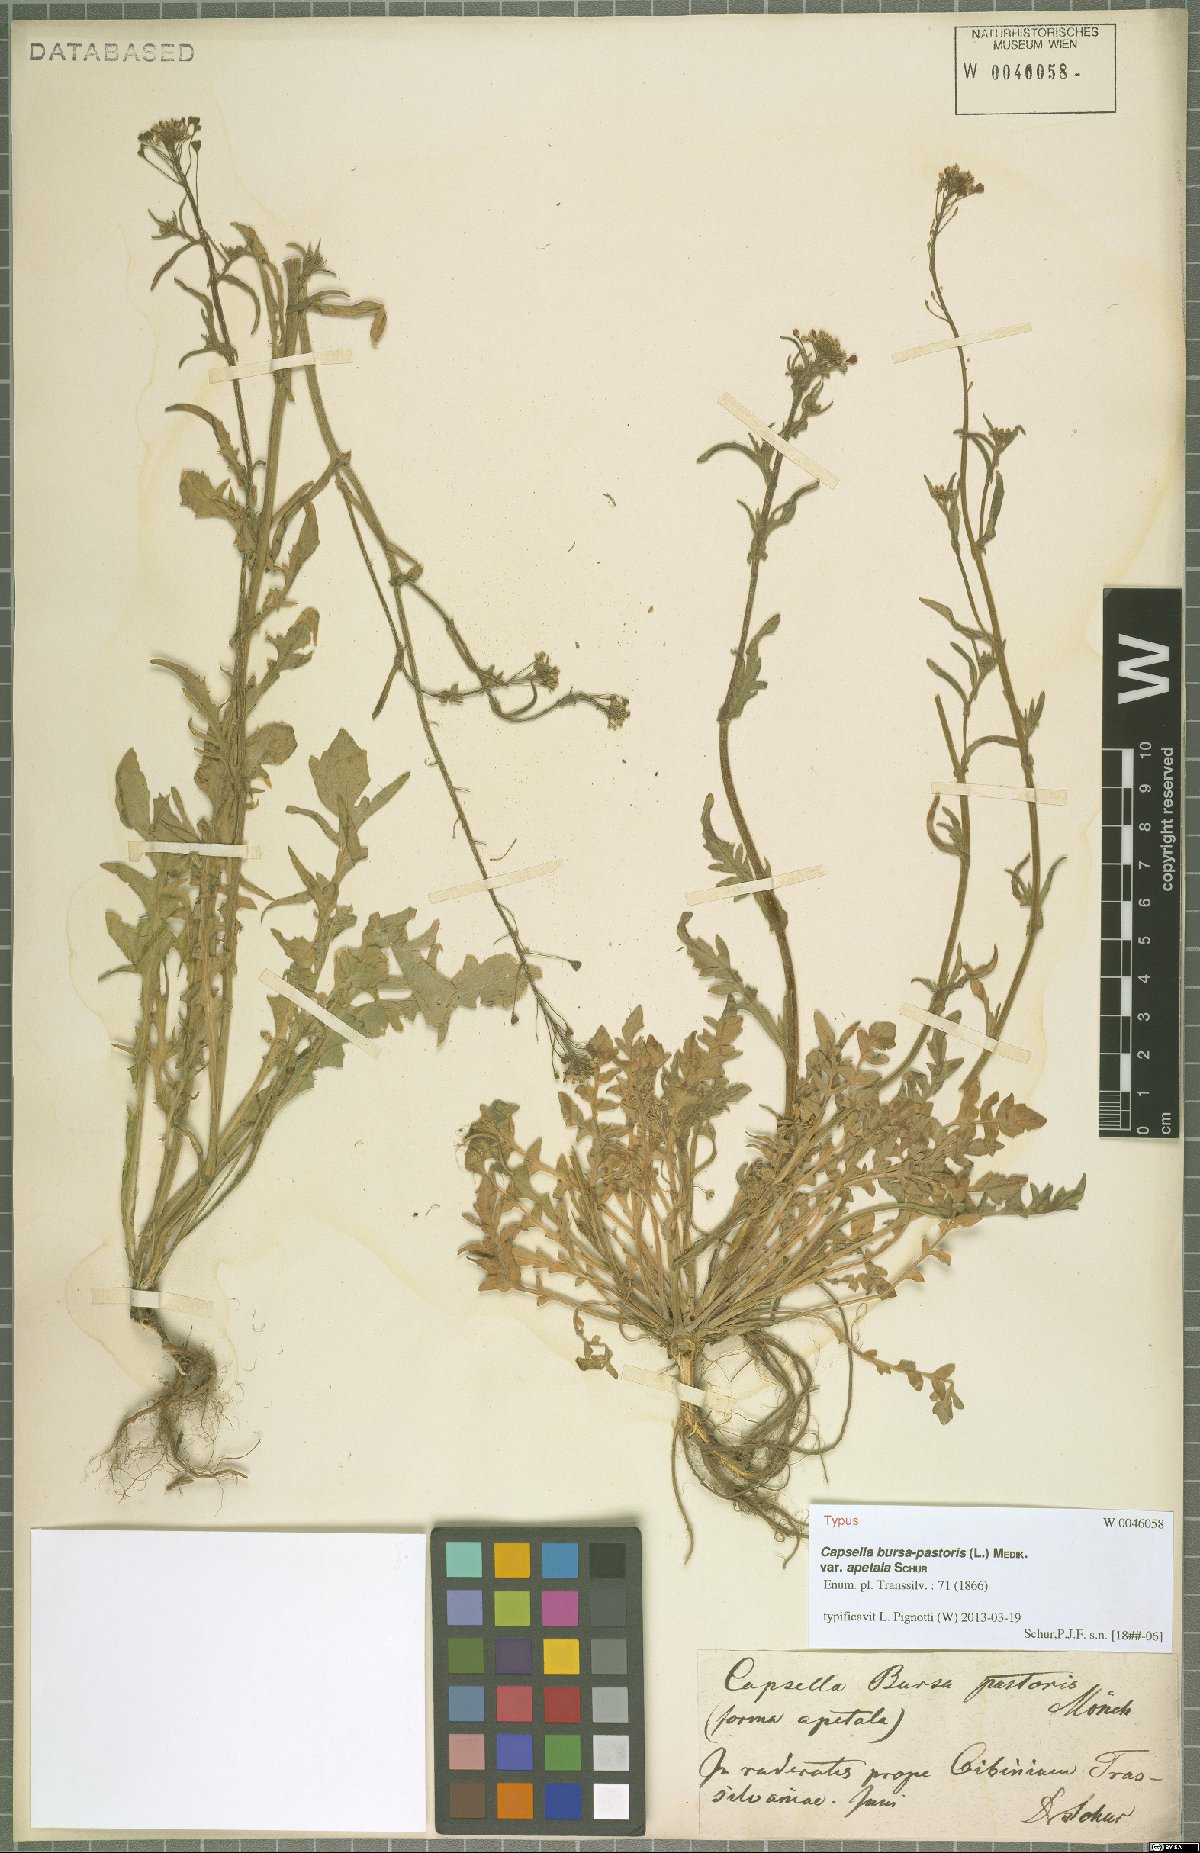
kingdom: Plantae
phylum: Tracheophyta
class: Magnoliopsida
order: Brassicales
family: Brassicaceae
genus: Capsella
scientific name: Capsella bursa-pastoris
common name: Shepherd's purse
